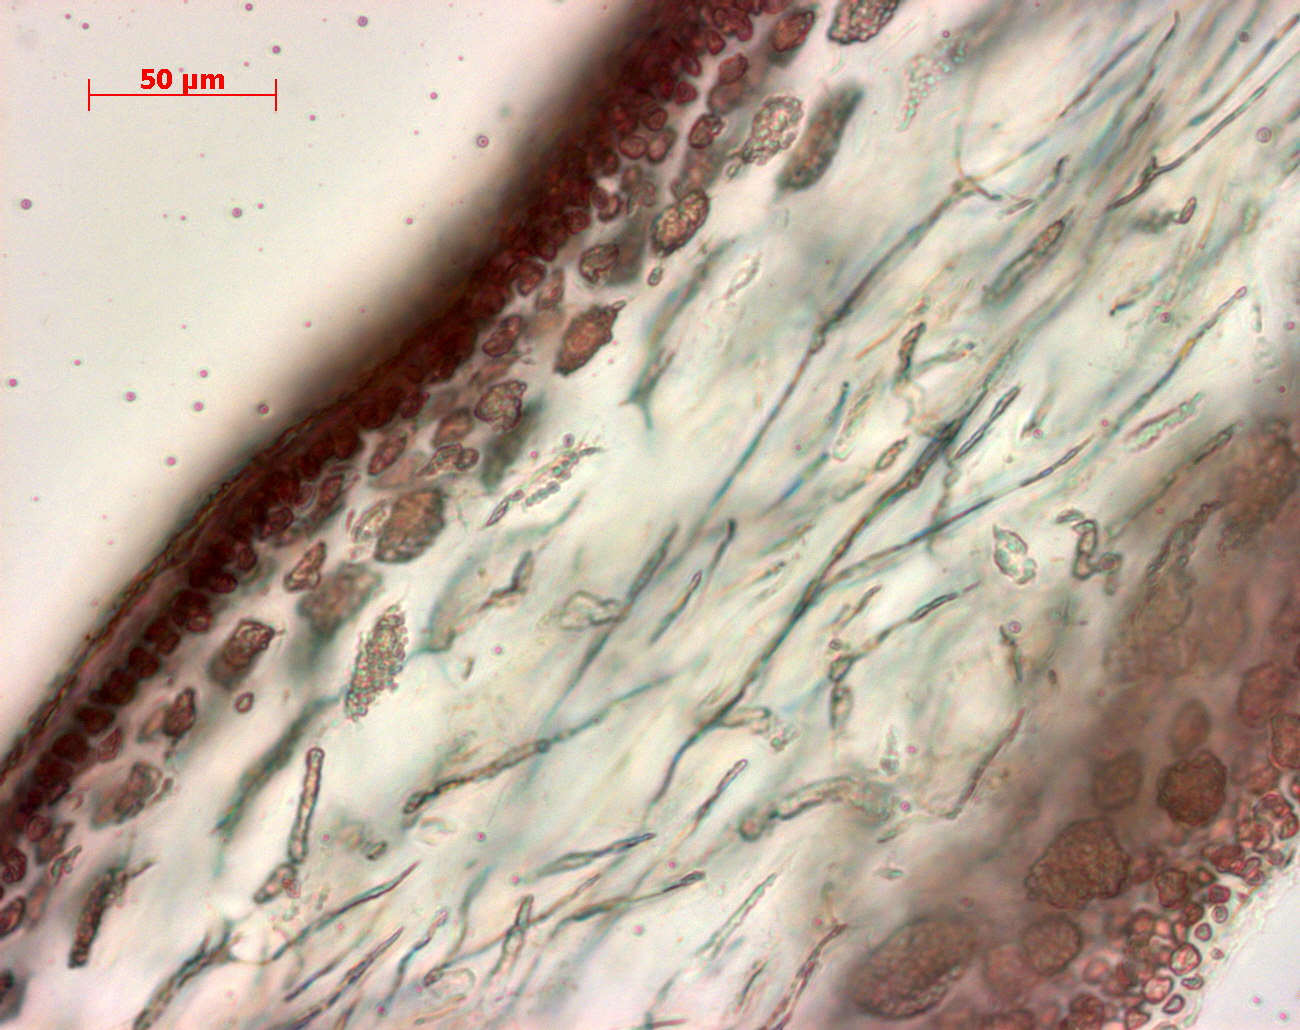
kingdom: Plantae
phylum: Rhodophyta
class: Florideophyceae
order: Gigartinales
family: Kallymeniaceae
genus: Psaromenia
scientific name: Psaromenia berggrenii
